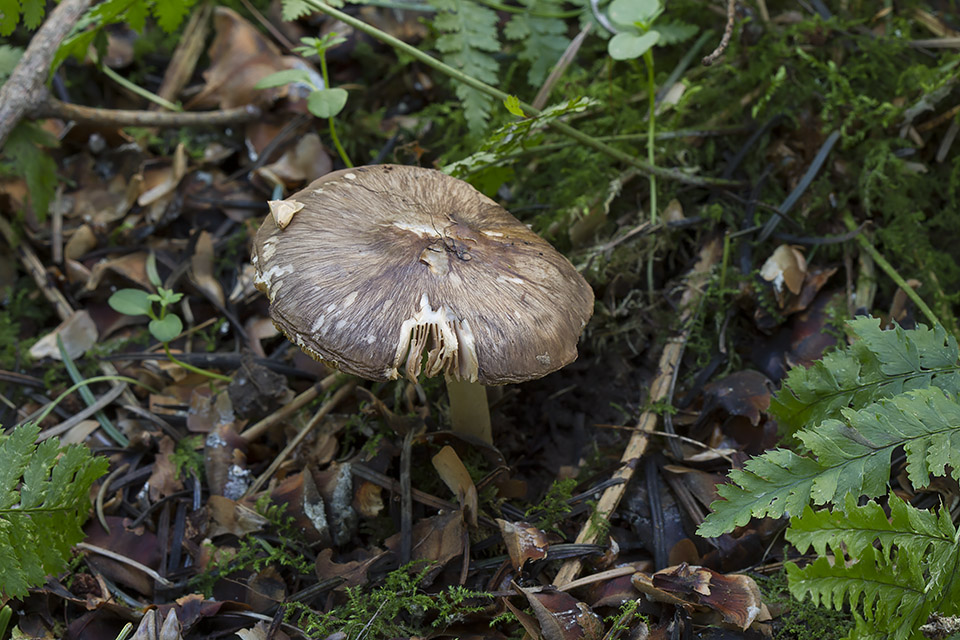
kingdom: Fungi
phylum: Basidiomycota
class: Agaricomycetes
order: Agaricales
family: Pluteaceae
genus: Pluteus
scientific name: Pluteus cervinus
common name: sodfarvet skærmhat
